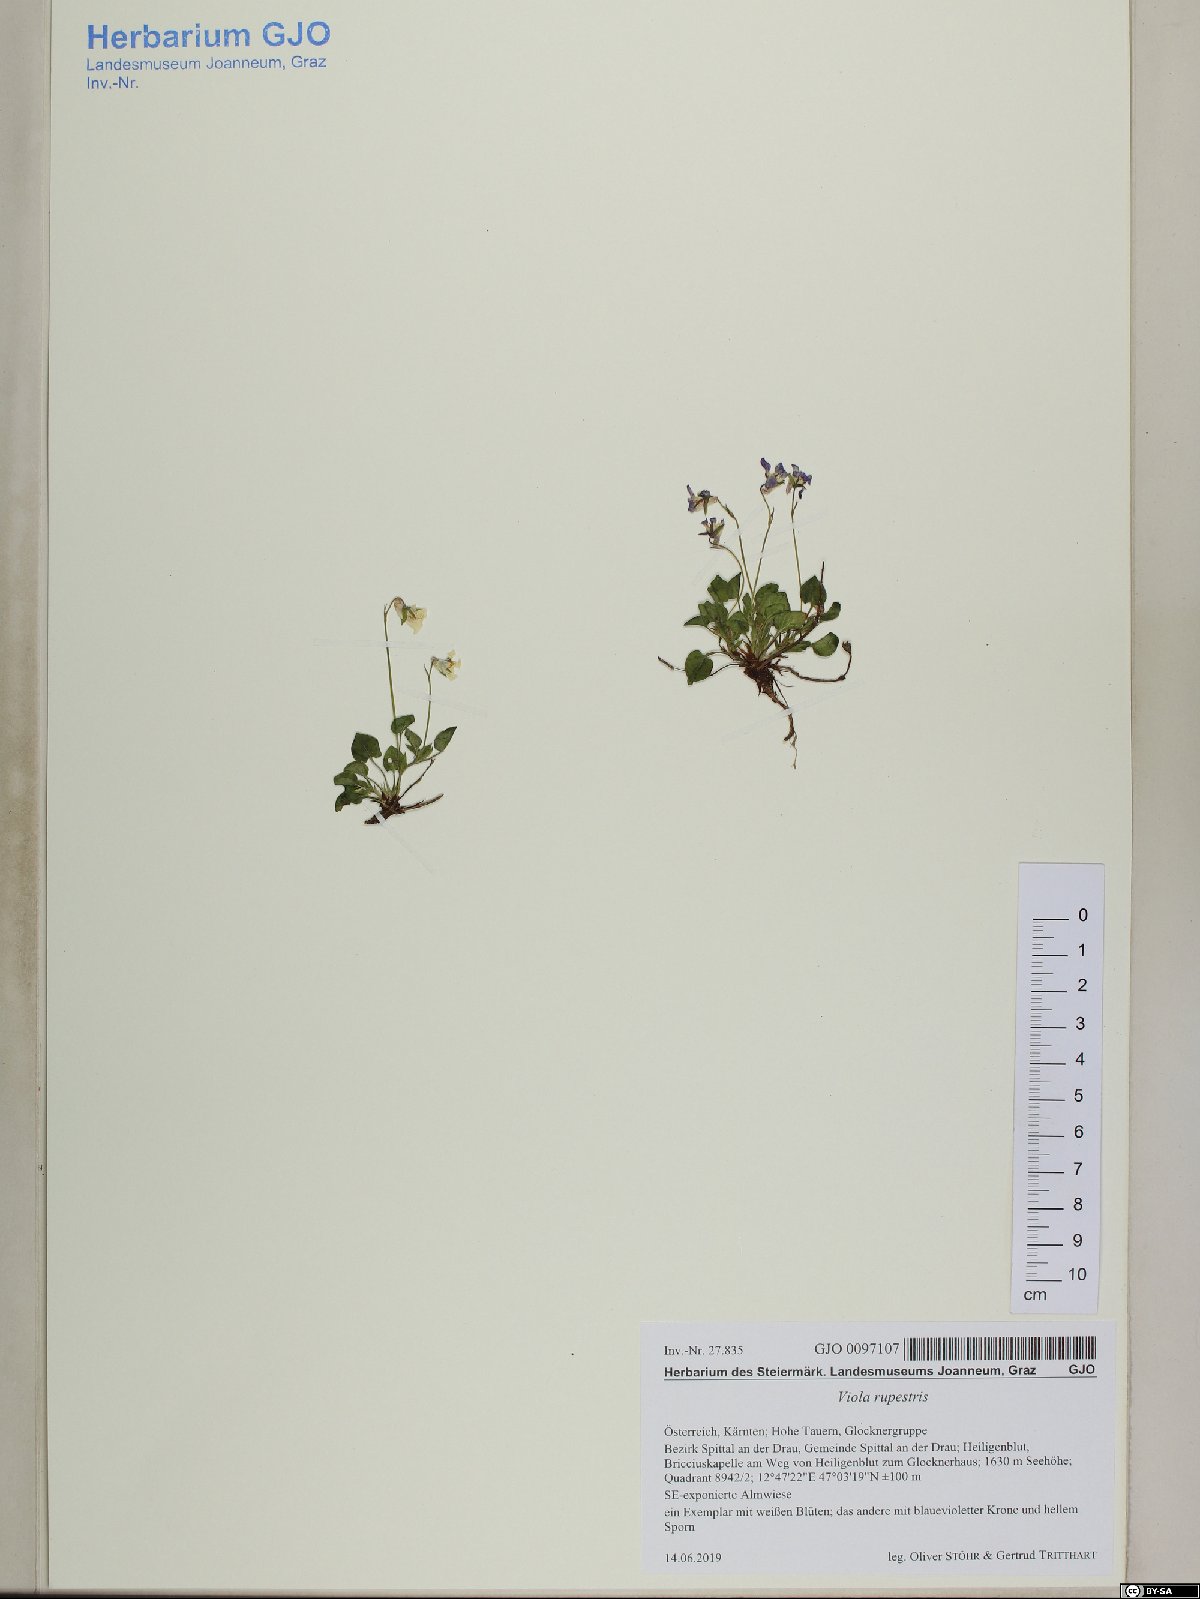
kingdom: Plantae
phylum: Tracheophyta
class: Magnoliopsida
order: Malpighiales
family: Violaceae
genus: Viola
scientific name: Viola rupestris
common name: Teesdale violet
